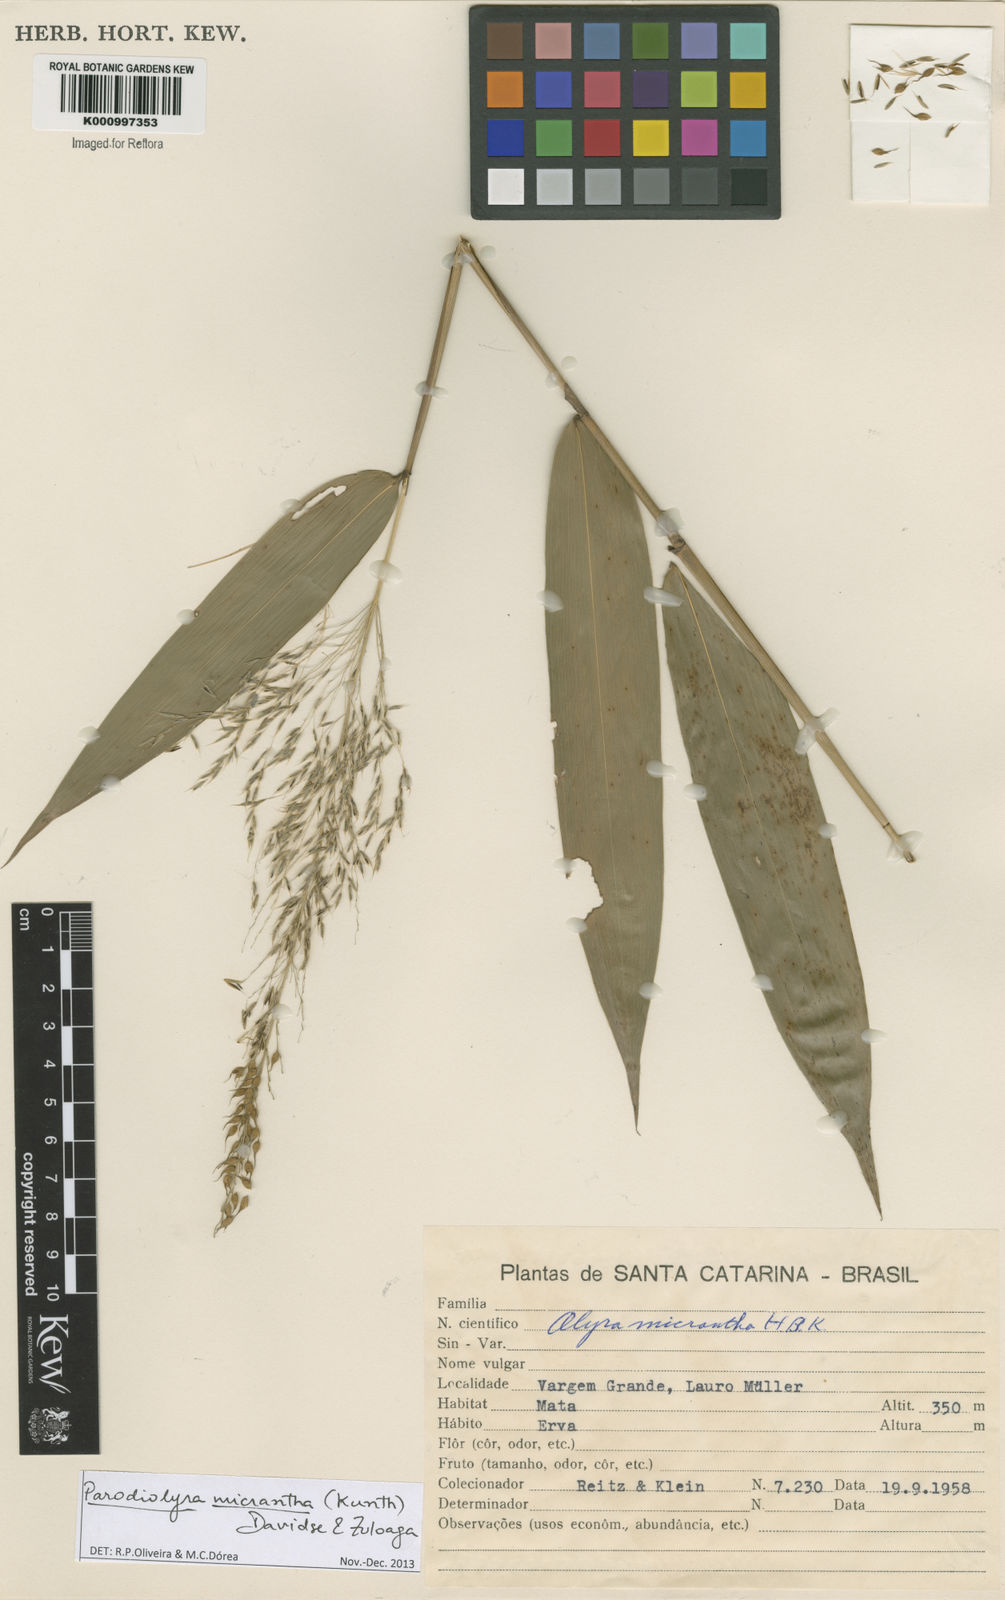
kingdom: Plantae
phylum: Tracheophyta
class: Liliopsida
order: Poales
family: Poaceae
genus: Taquara
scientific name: Taquara micrantha
